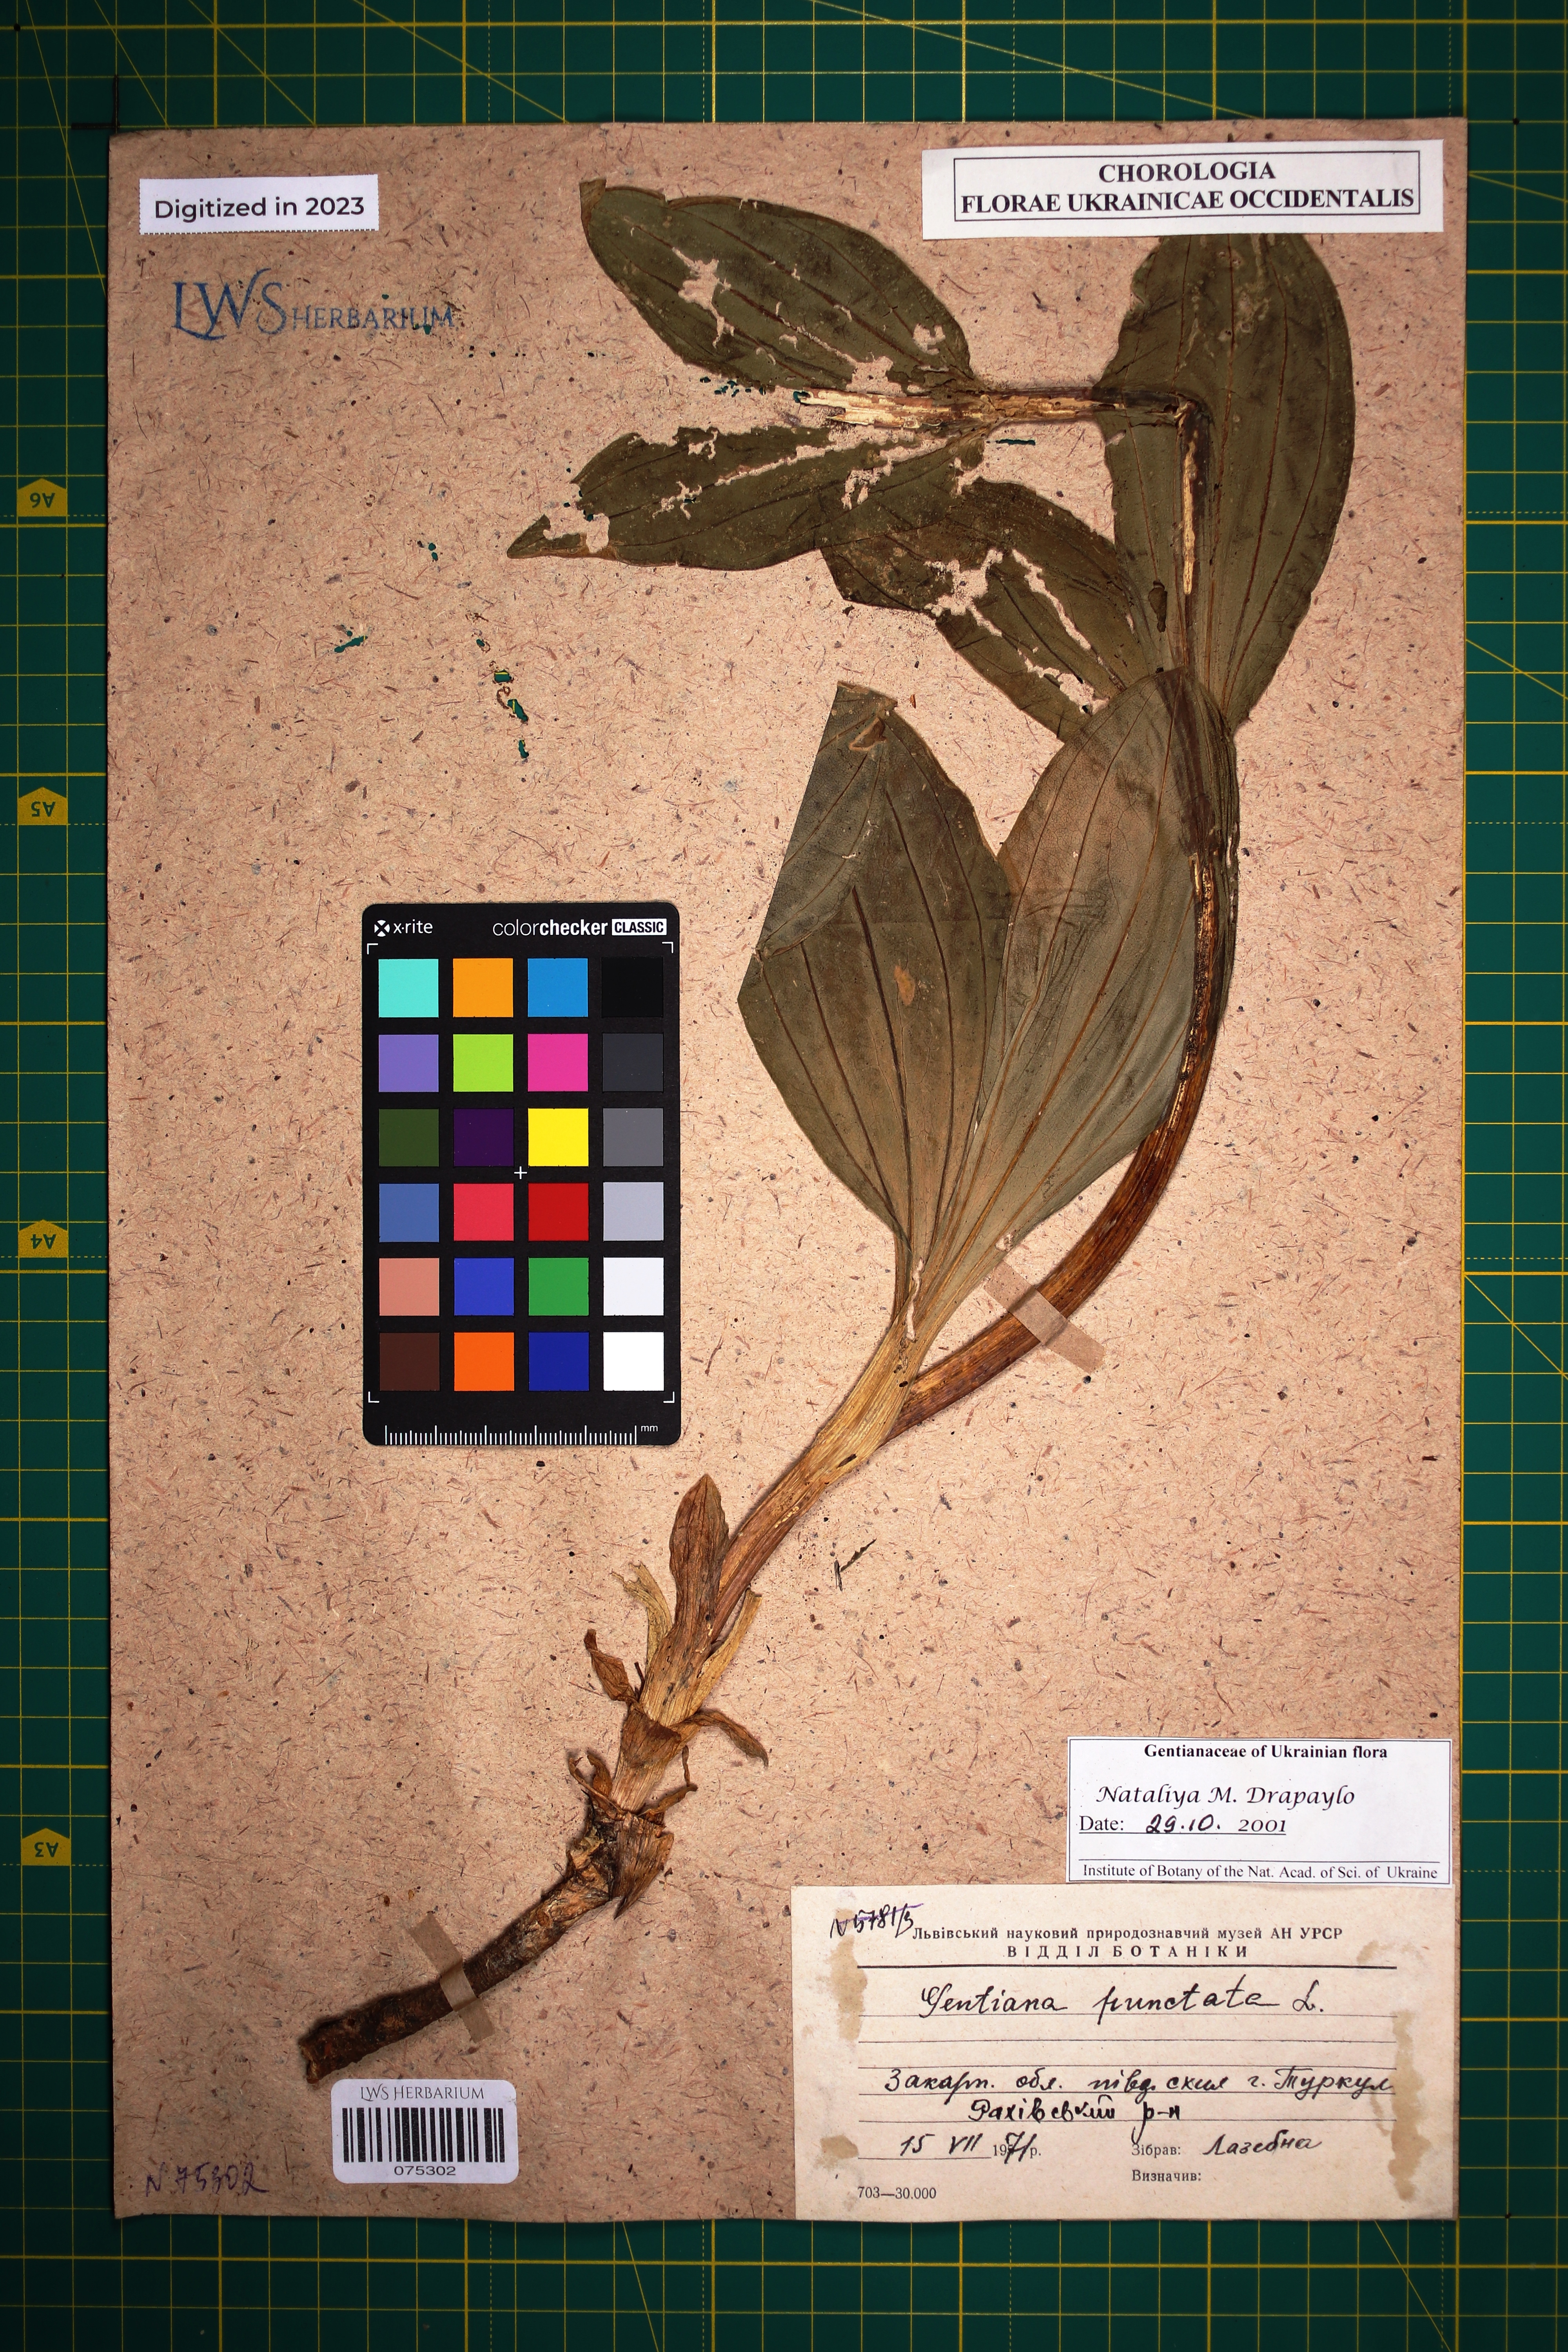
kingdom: Plantae
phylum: Tracheophyta
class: Magnoliopsida
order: Gentianales
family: Gentianaceae
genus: Gentiana
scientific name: Gentiana punctata
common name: Spotted gentian
